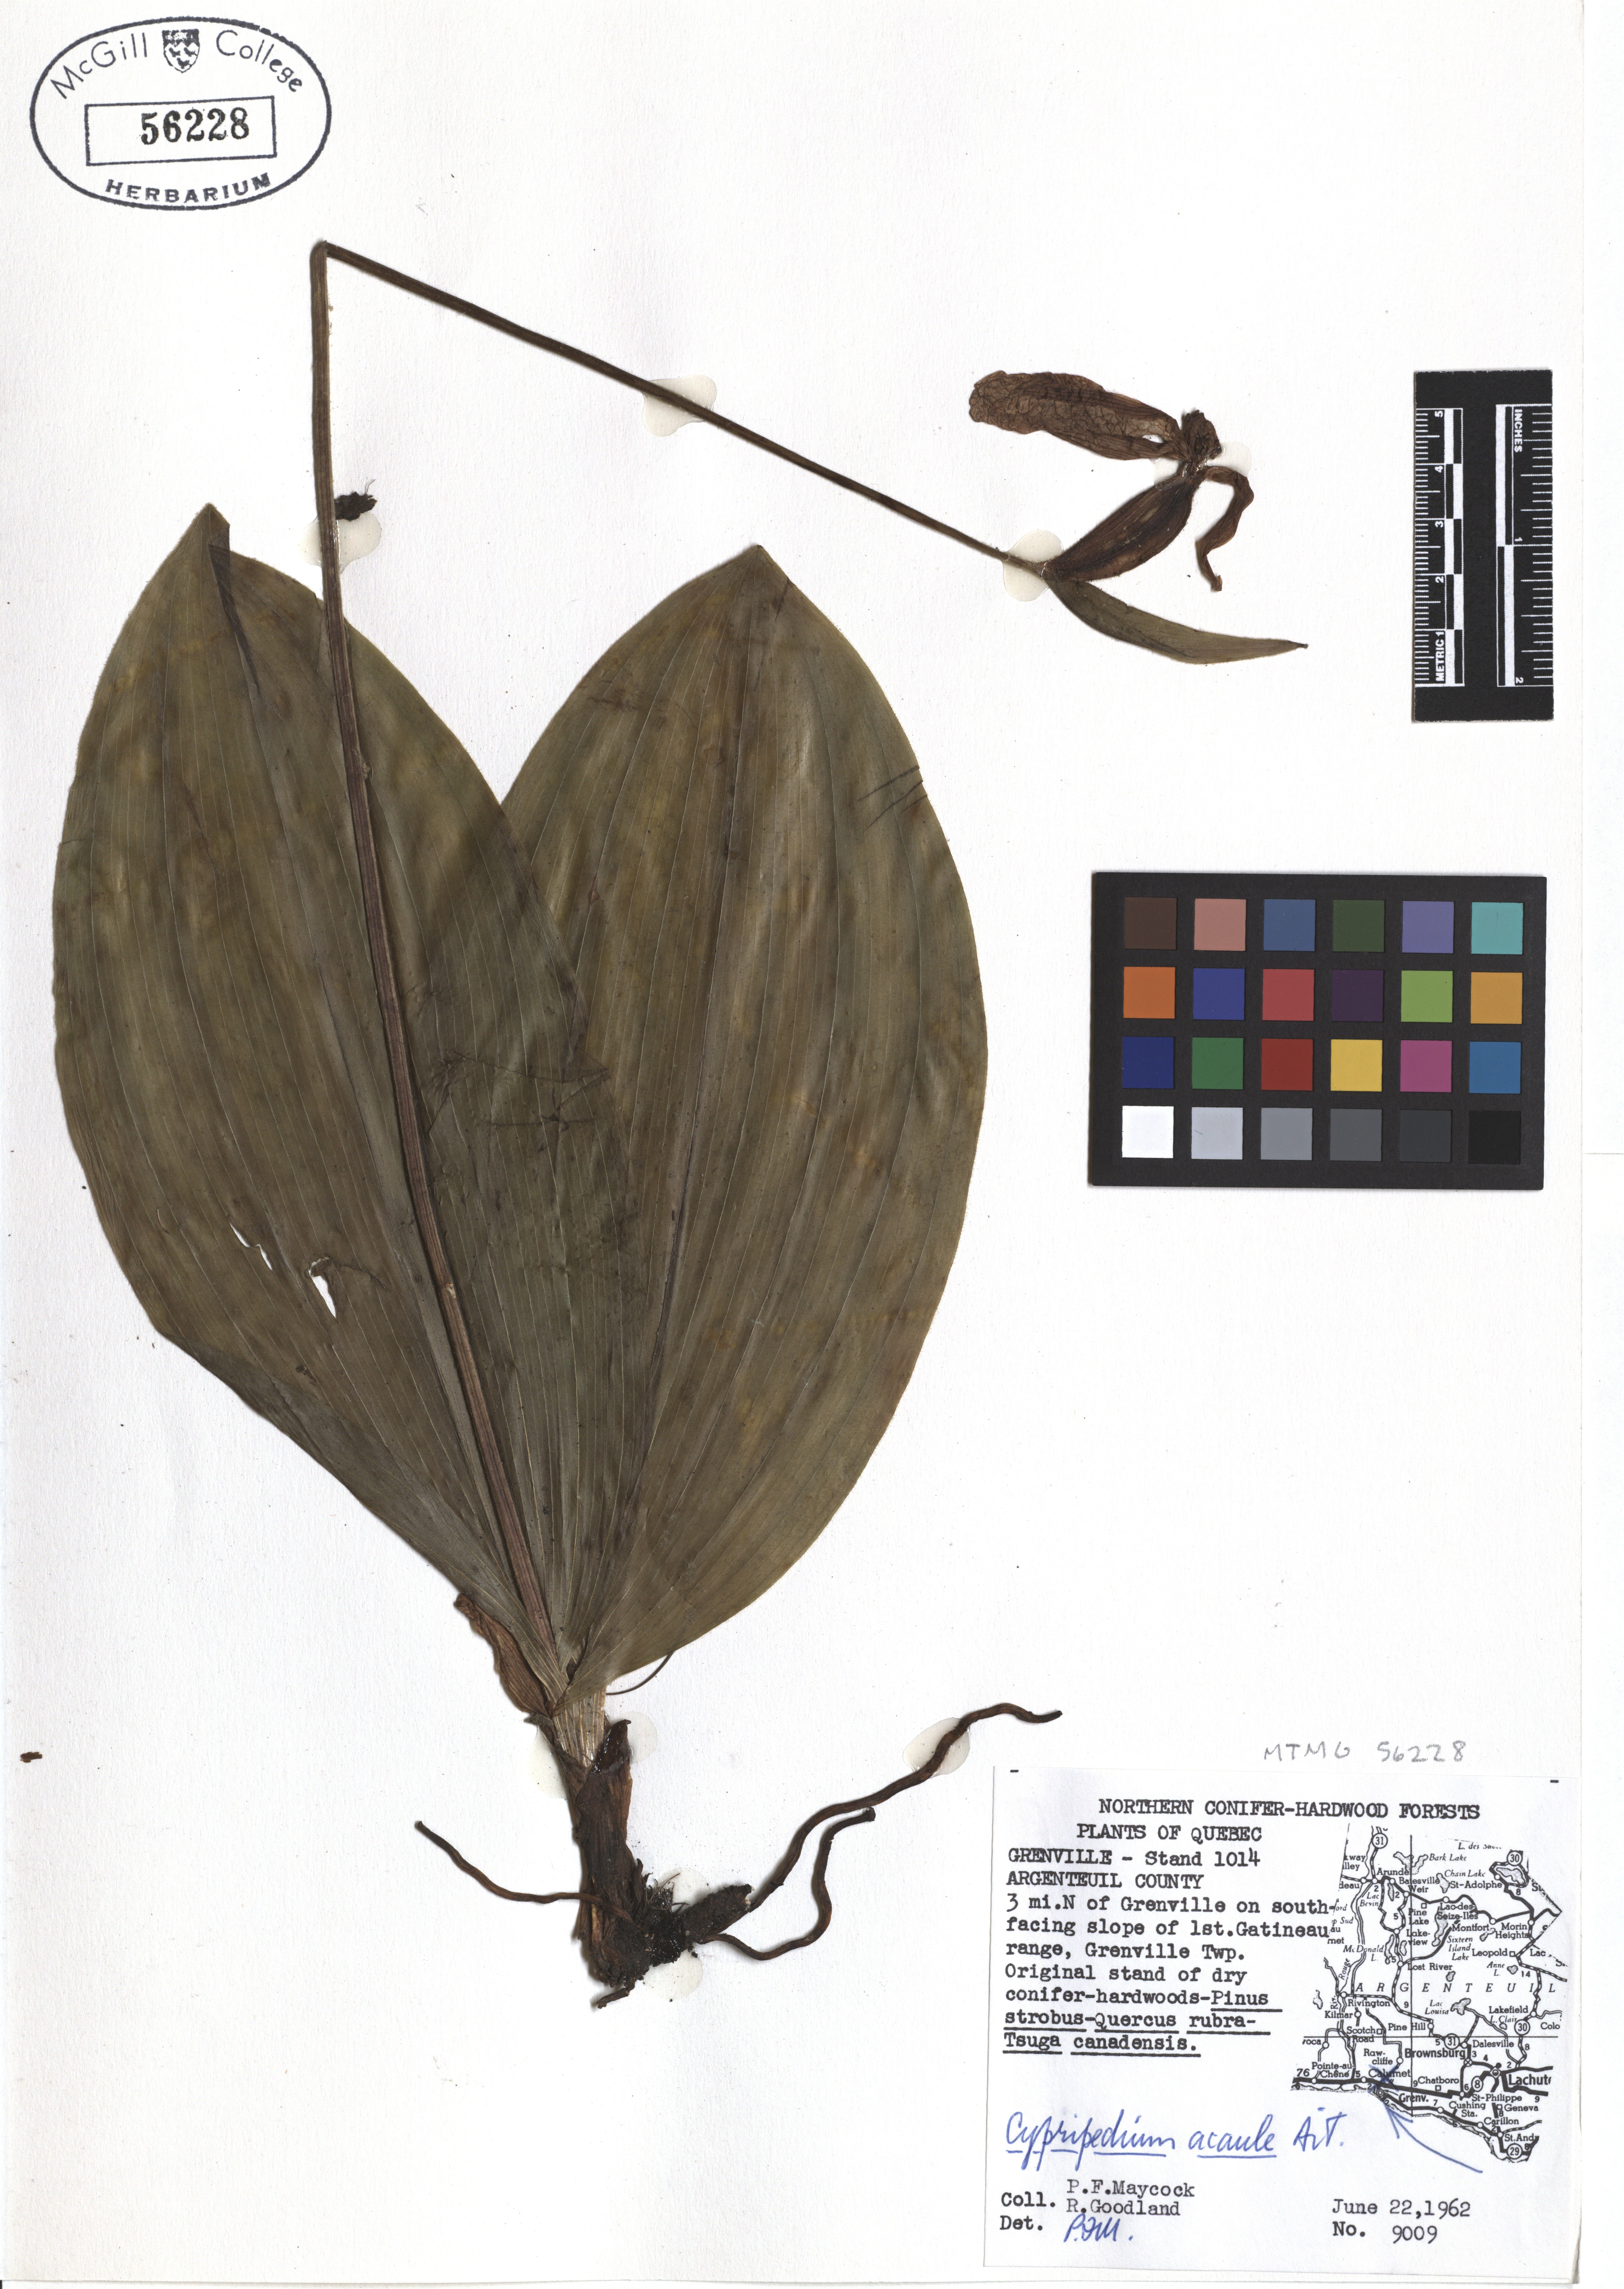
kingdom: Plantae
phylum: Tracheophyta
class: Liliopsida
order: Asparagales
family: Orchidaceae
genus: Cypripedium
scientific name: Cypripedium acaule
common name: Pink lady's-slipper
